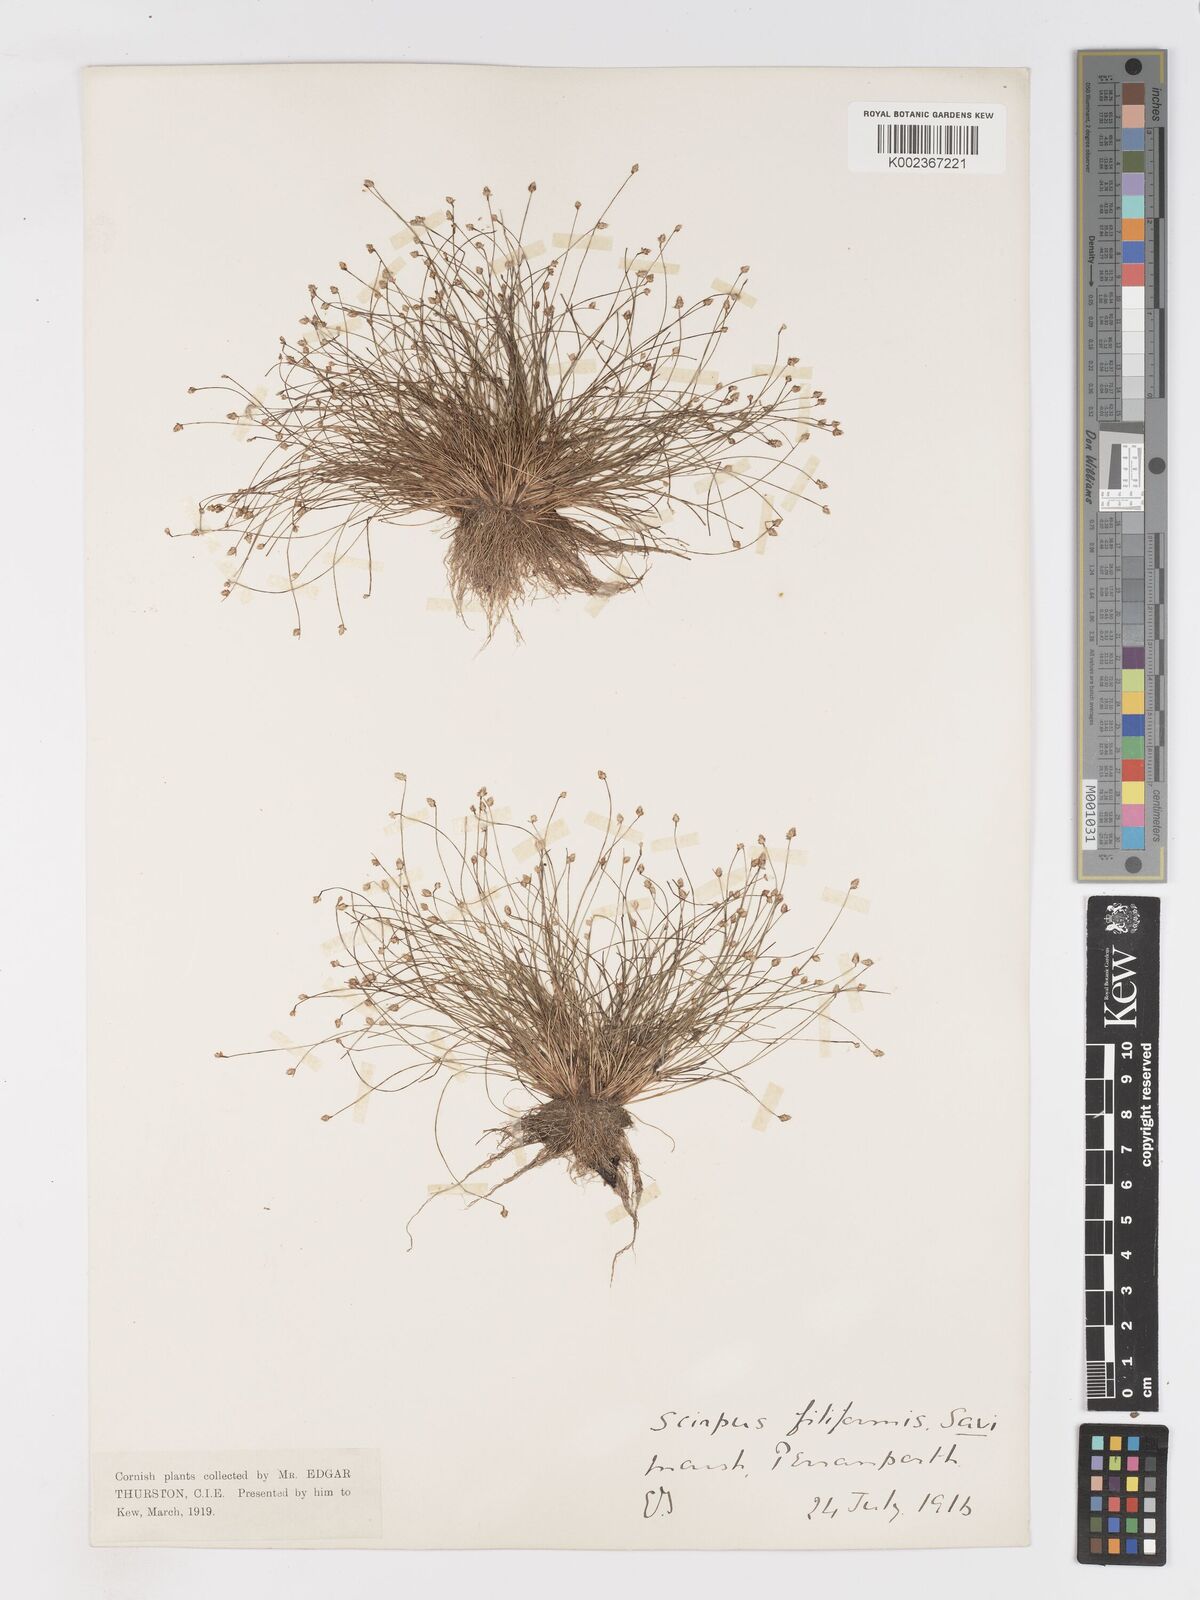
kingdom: Plantae
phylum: Tracheophyta
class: Liliopsida
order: Poales
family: Cyperaceae
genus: Isolepis
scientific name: Isolepis cernua
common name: Slender club-rush
